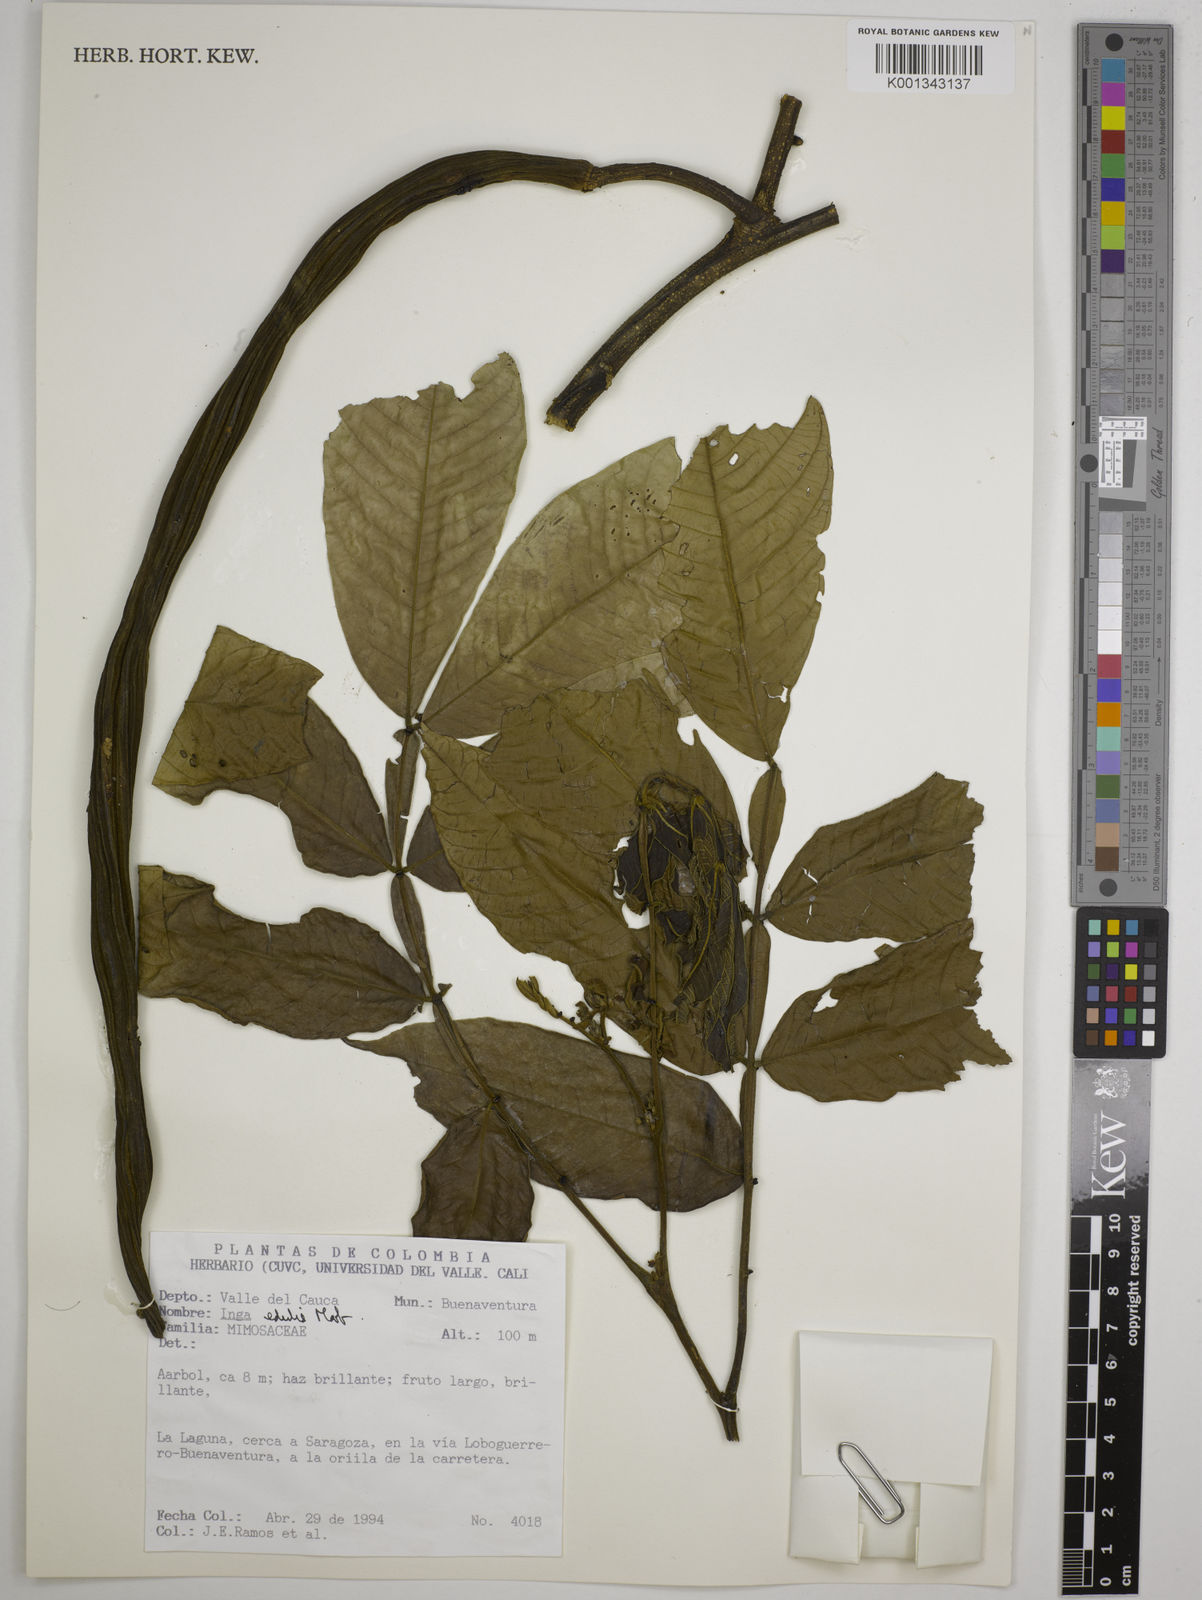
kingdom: Plantae
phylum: Tracheophyta
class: Magnoliopsida
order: Fabales
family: Fabaceae
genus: Inga
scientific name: Inga edulis
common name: Ice cream bean
